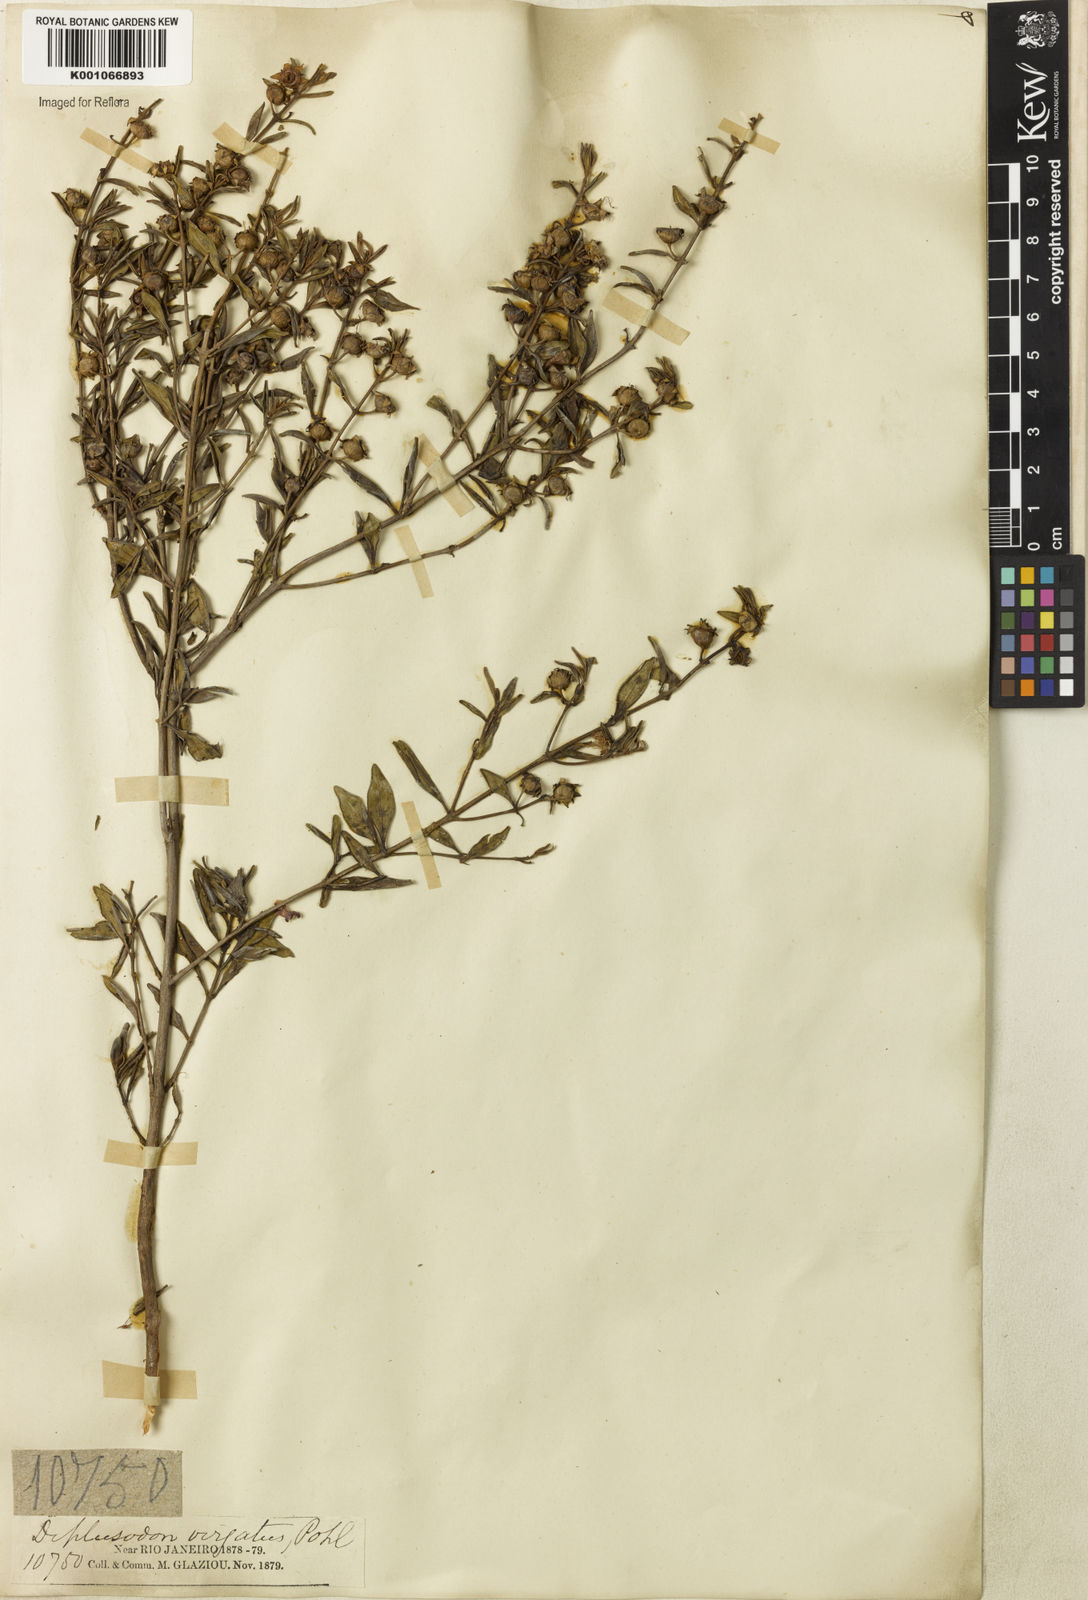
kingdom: Plantae
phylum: Tracheophyta
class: Magnoliopsida
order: Myrtales
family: Lythraceae
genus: Diplusodon
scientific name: Diplusodon virgatus
